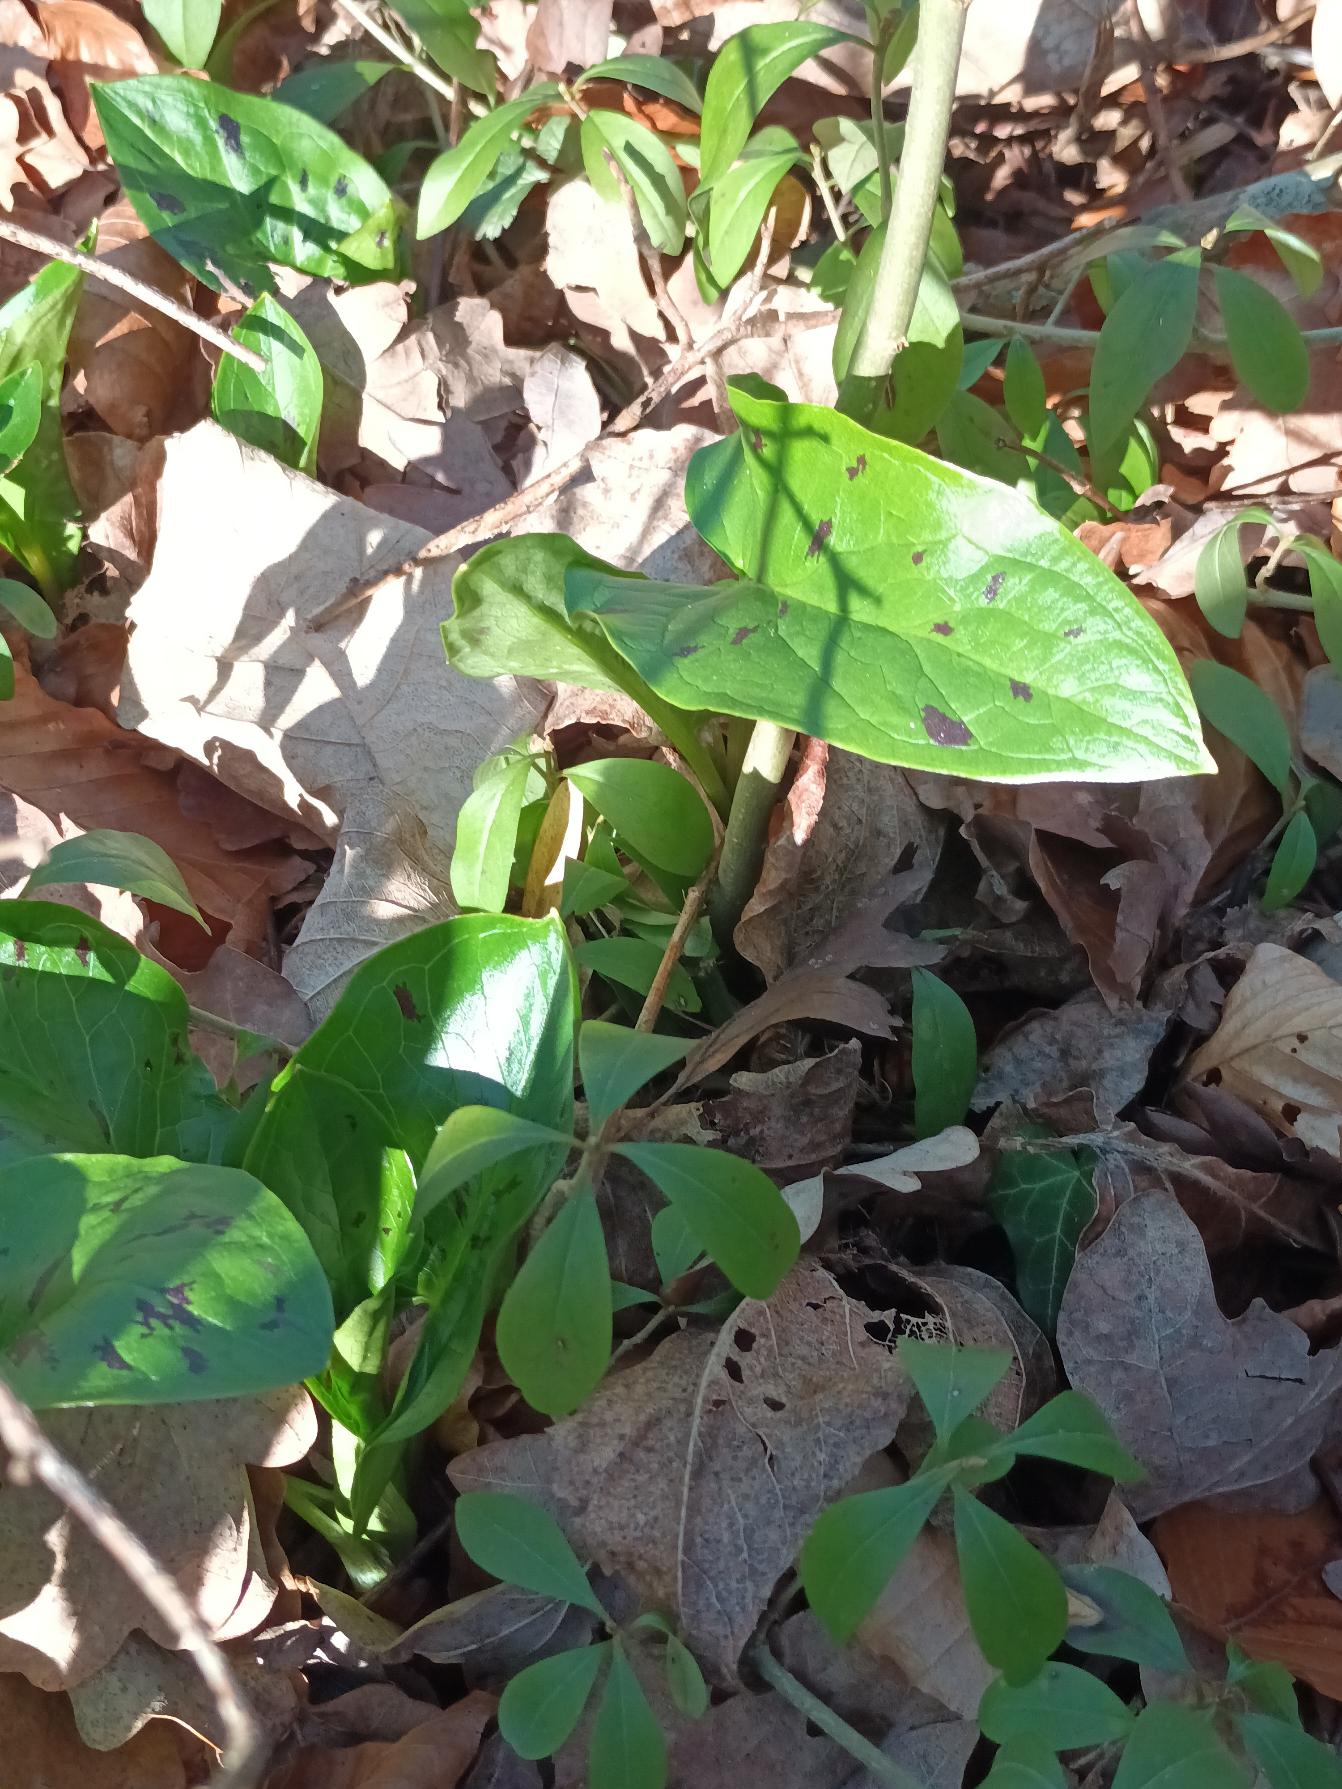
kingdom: Plantae
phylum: Tracheophyta
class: Liliopsida
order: Alismatales
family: Araceae
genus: Arum
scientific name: Arum maculatum
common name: Plettet arum
